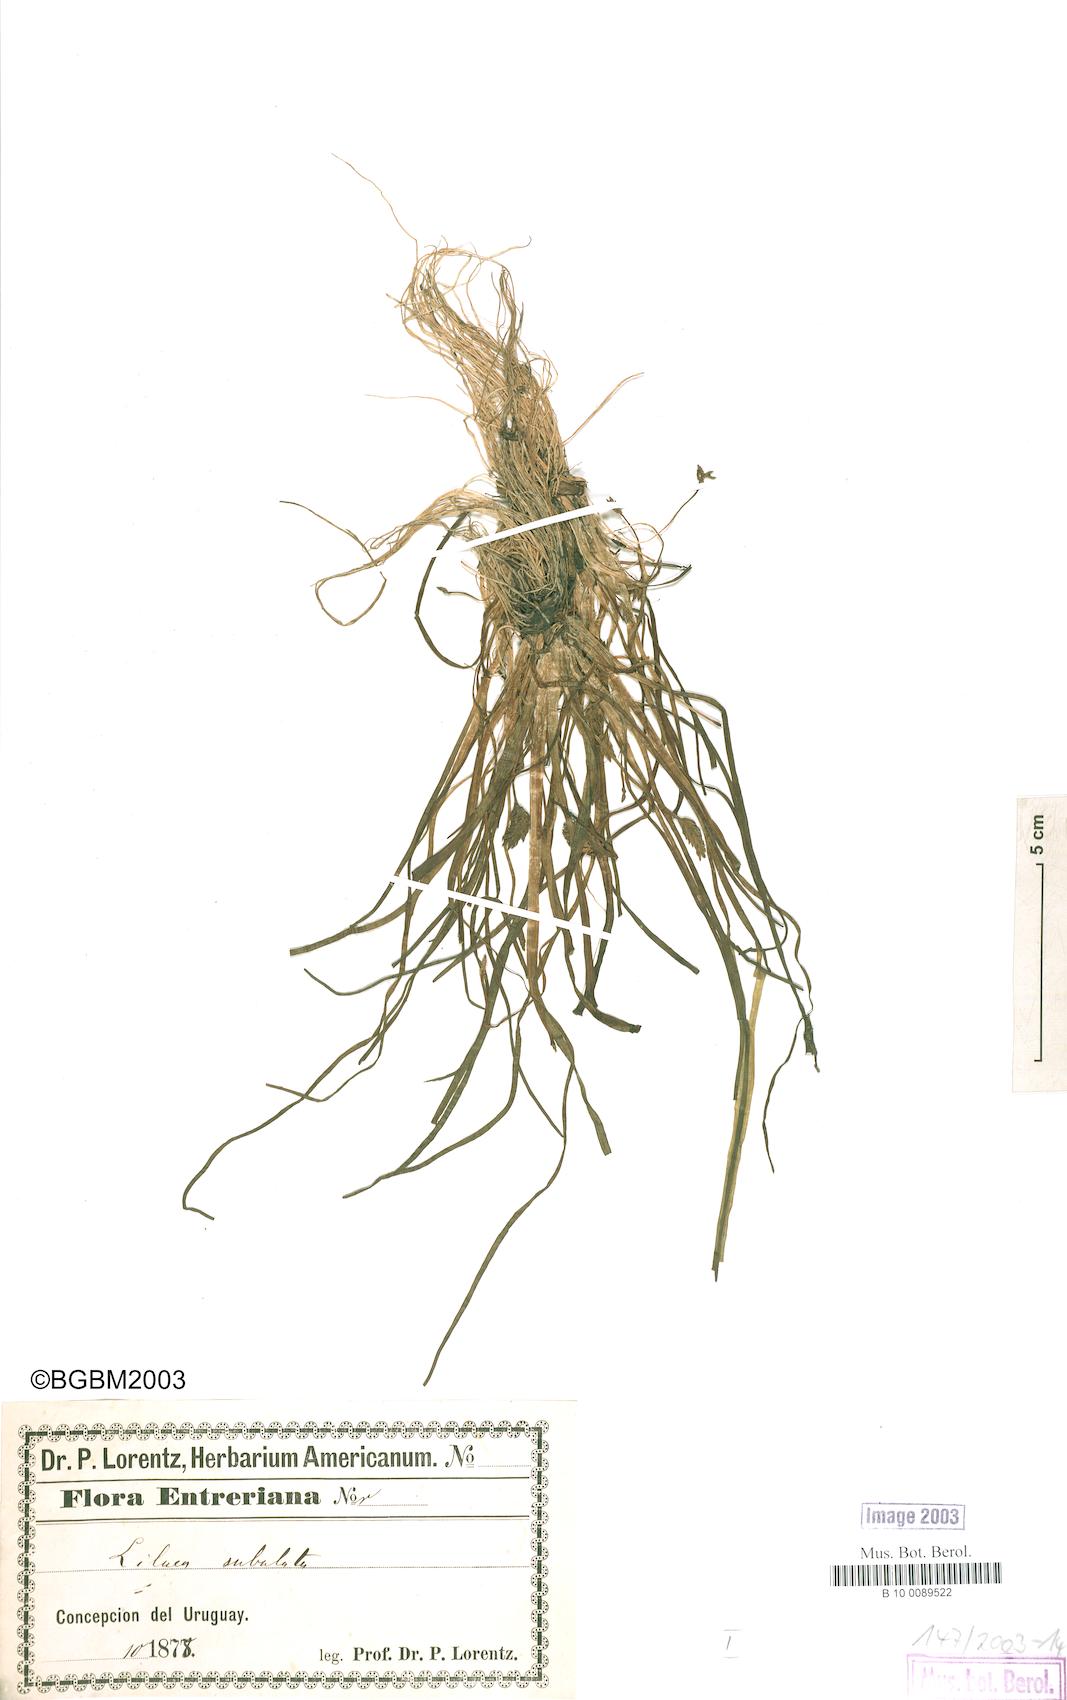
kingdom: Plantae
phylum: Tracheophyta
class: Liliopsida
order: Alismatales
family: Juncaginaceae
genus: Triglochin
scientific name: Triglochin scilloides
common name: Awl-leaved lilaea
